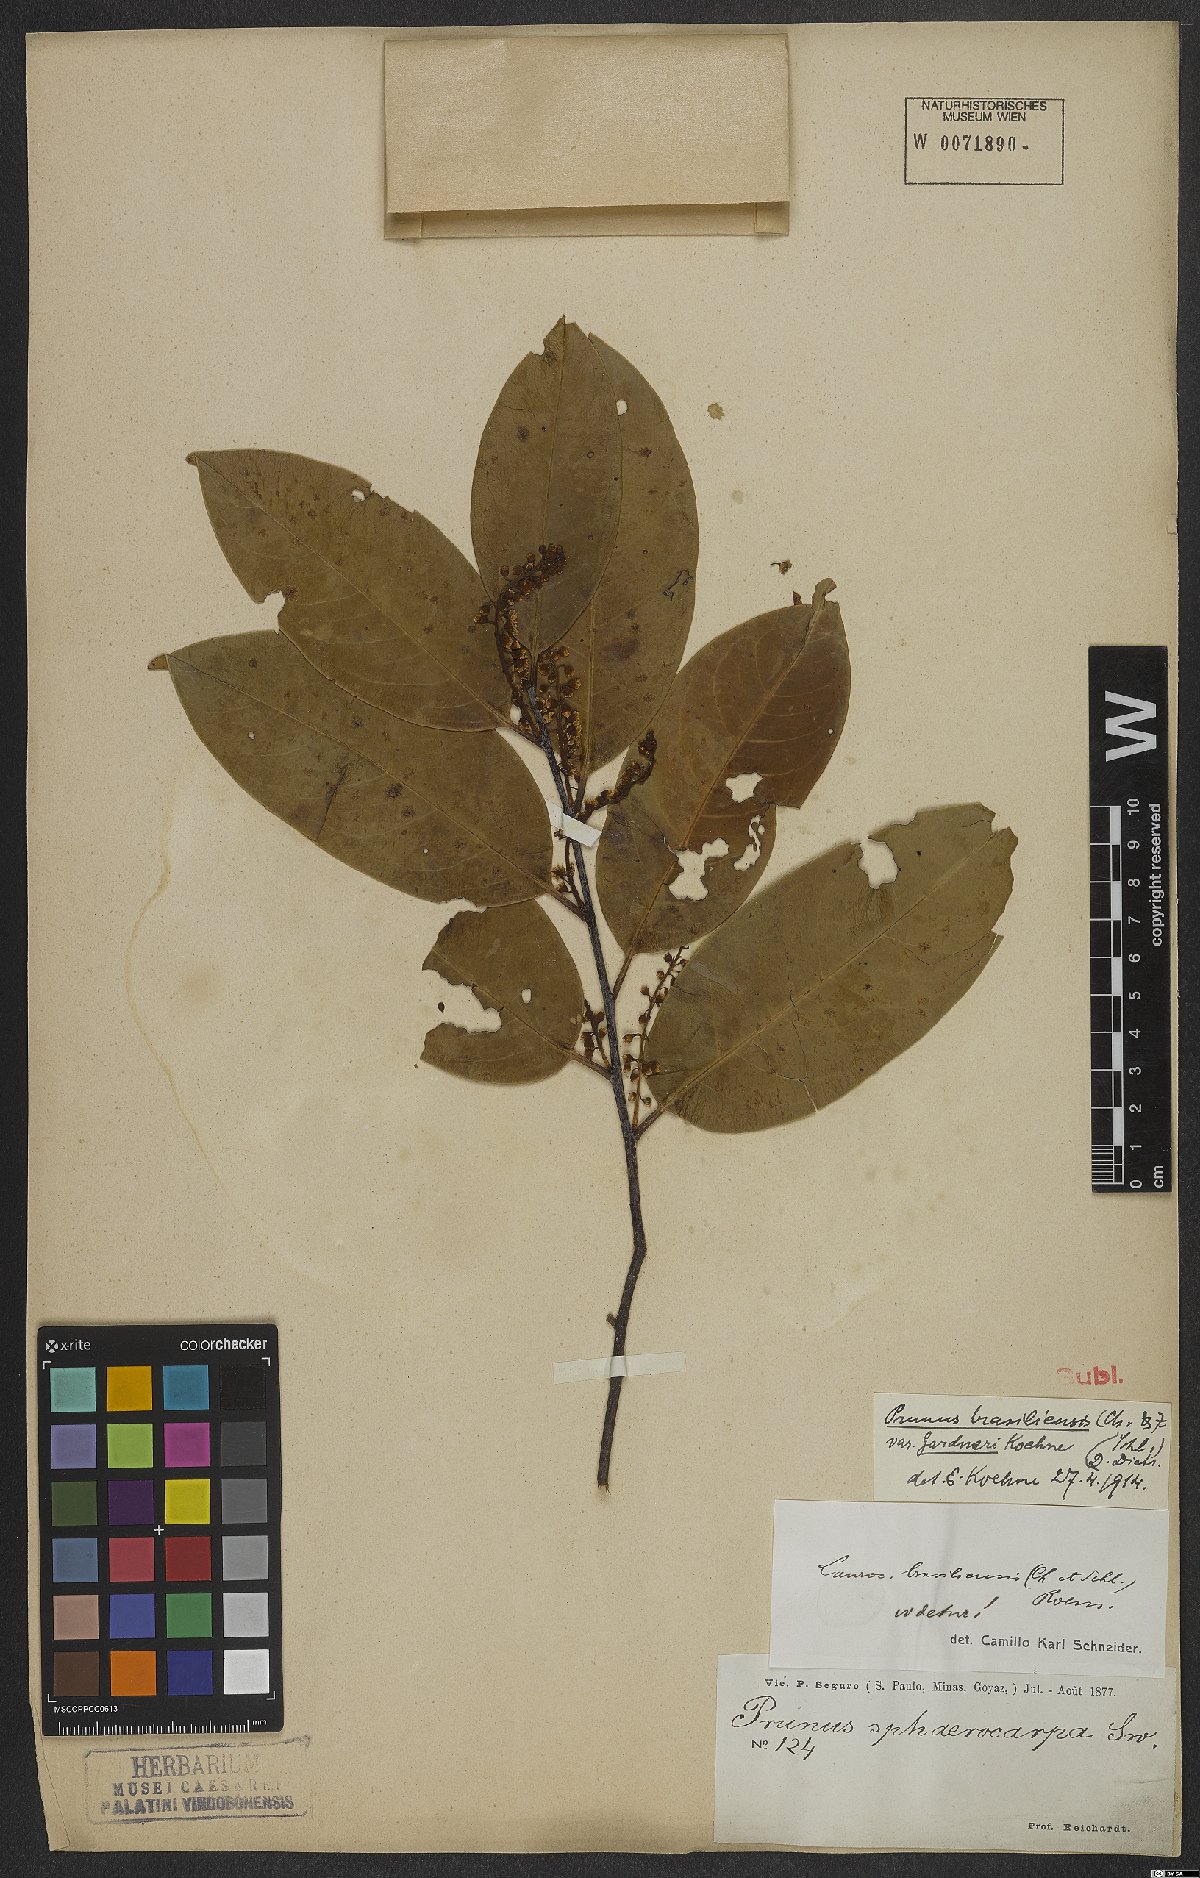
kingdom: Plantae
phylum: Tracheophyta
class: Magnoliopsida
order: Rosales
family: Rosaceae
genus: Prunus
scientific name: Prunus brasiliensis
